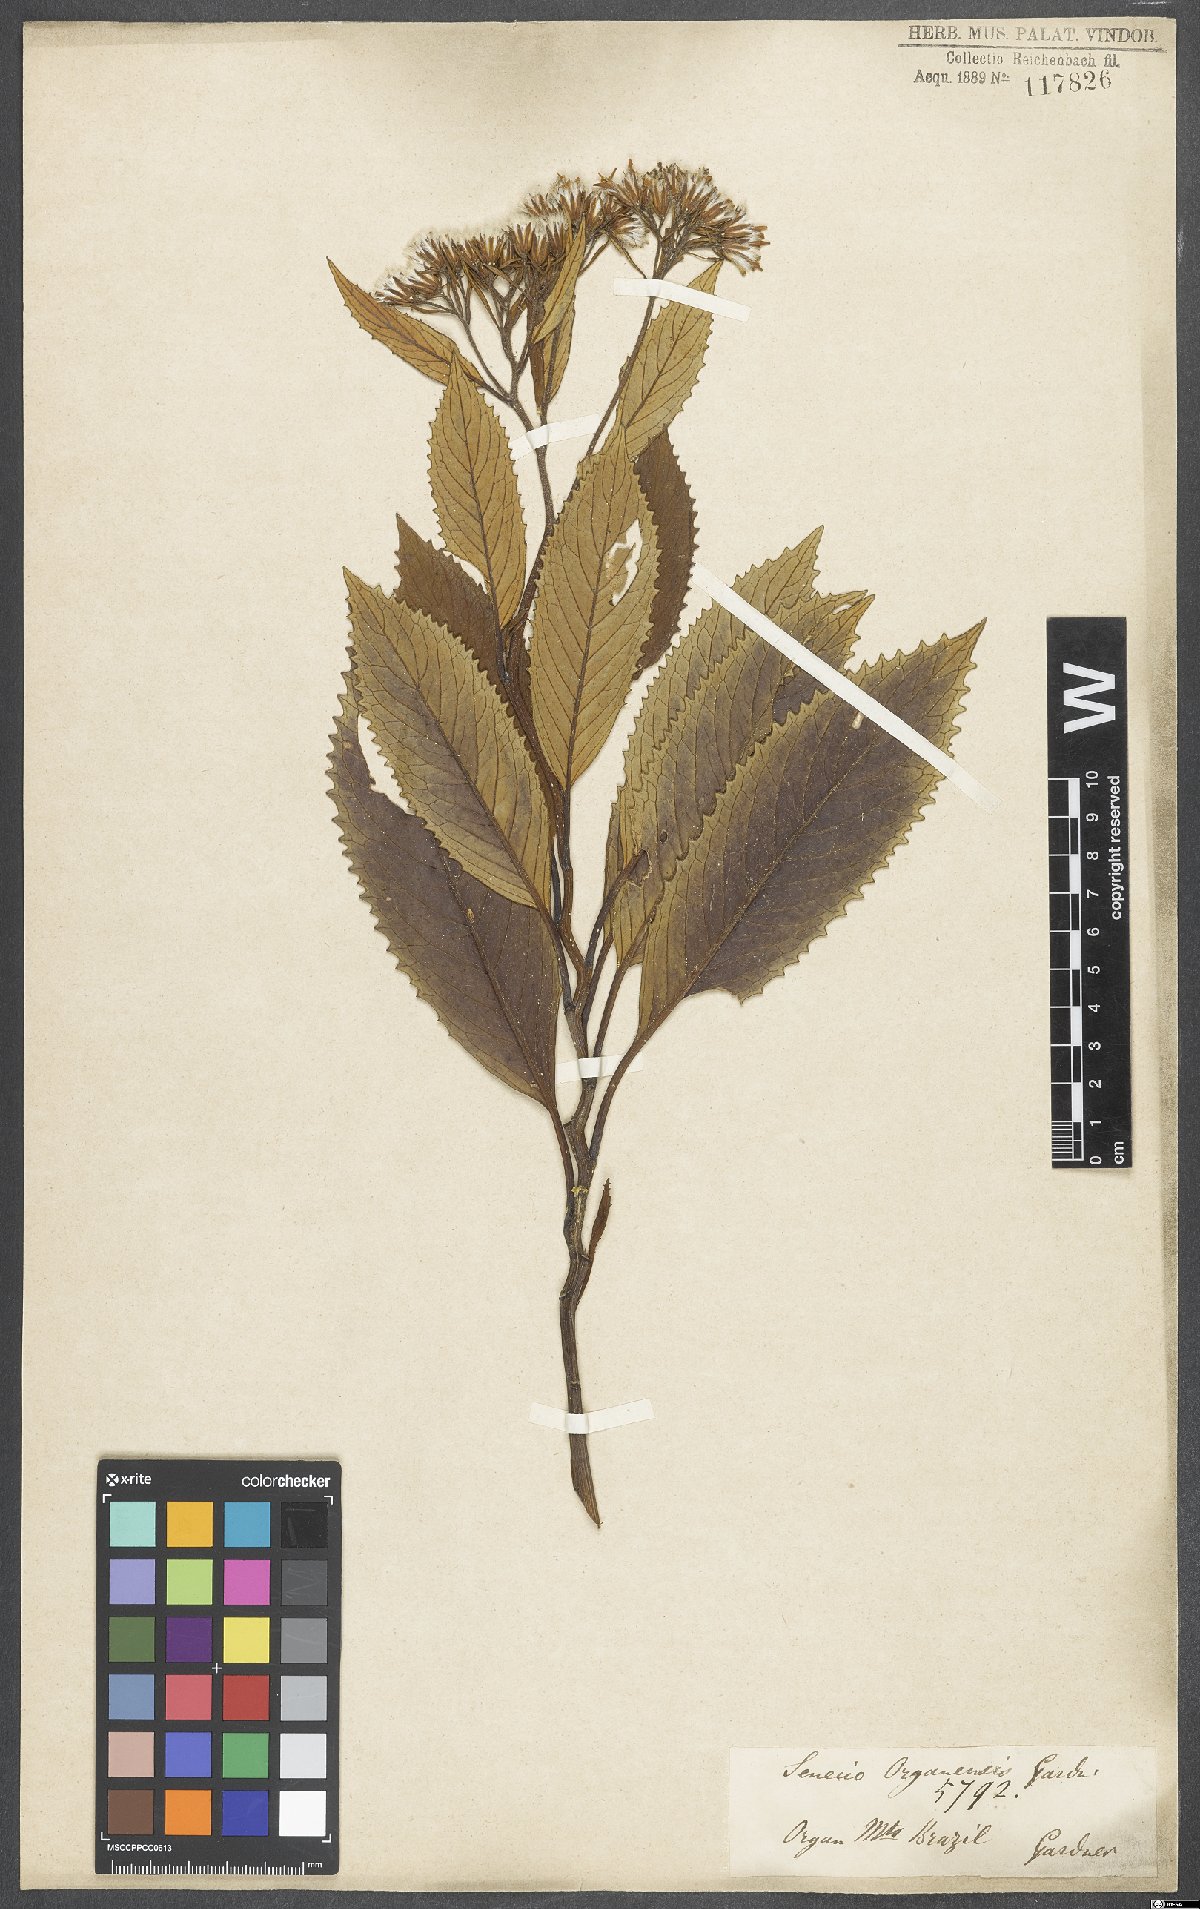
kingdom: Plantae
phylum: Tracheophyta
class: Magnoliopsida
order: Asterales
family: Asteraceae
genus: Graphistylis
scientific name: Graphistylis organensis
